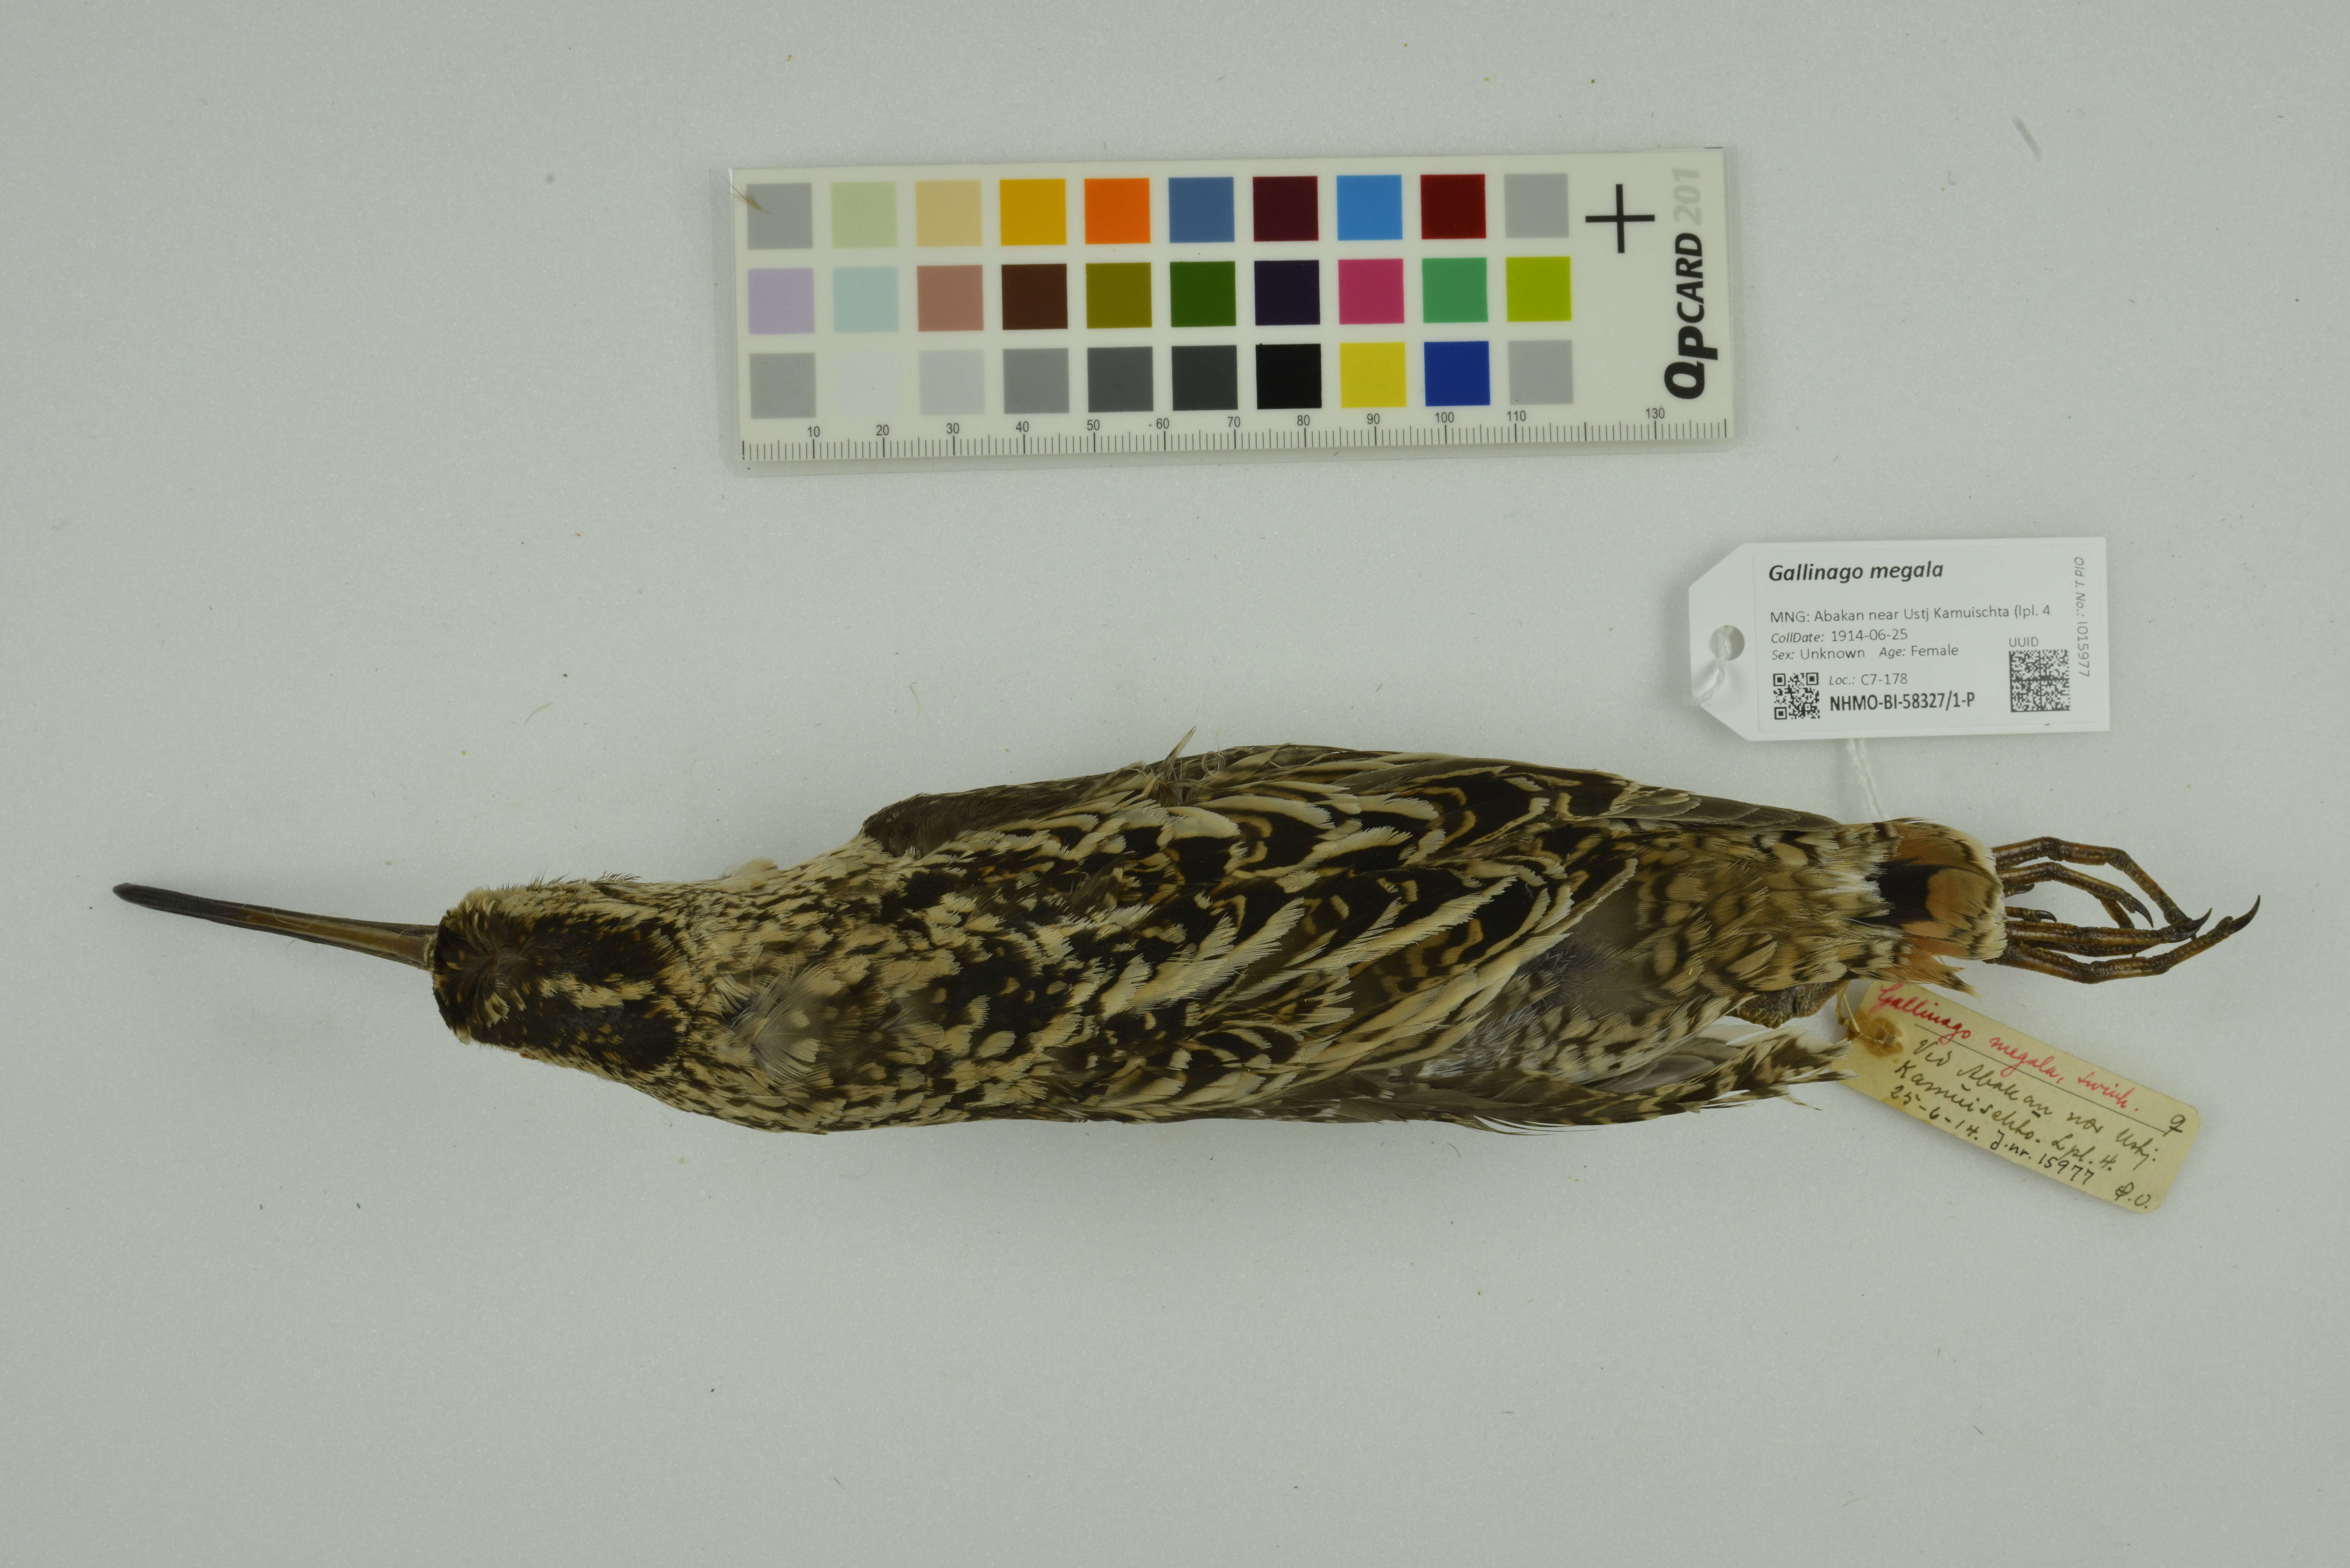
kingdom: Animalia
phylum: Chordata
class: Aves
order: Charadriiformes
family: Scolopacidae
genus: Gallinago
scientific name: Gallinago megala
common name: Swinhoe's snipe
